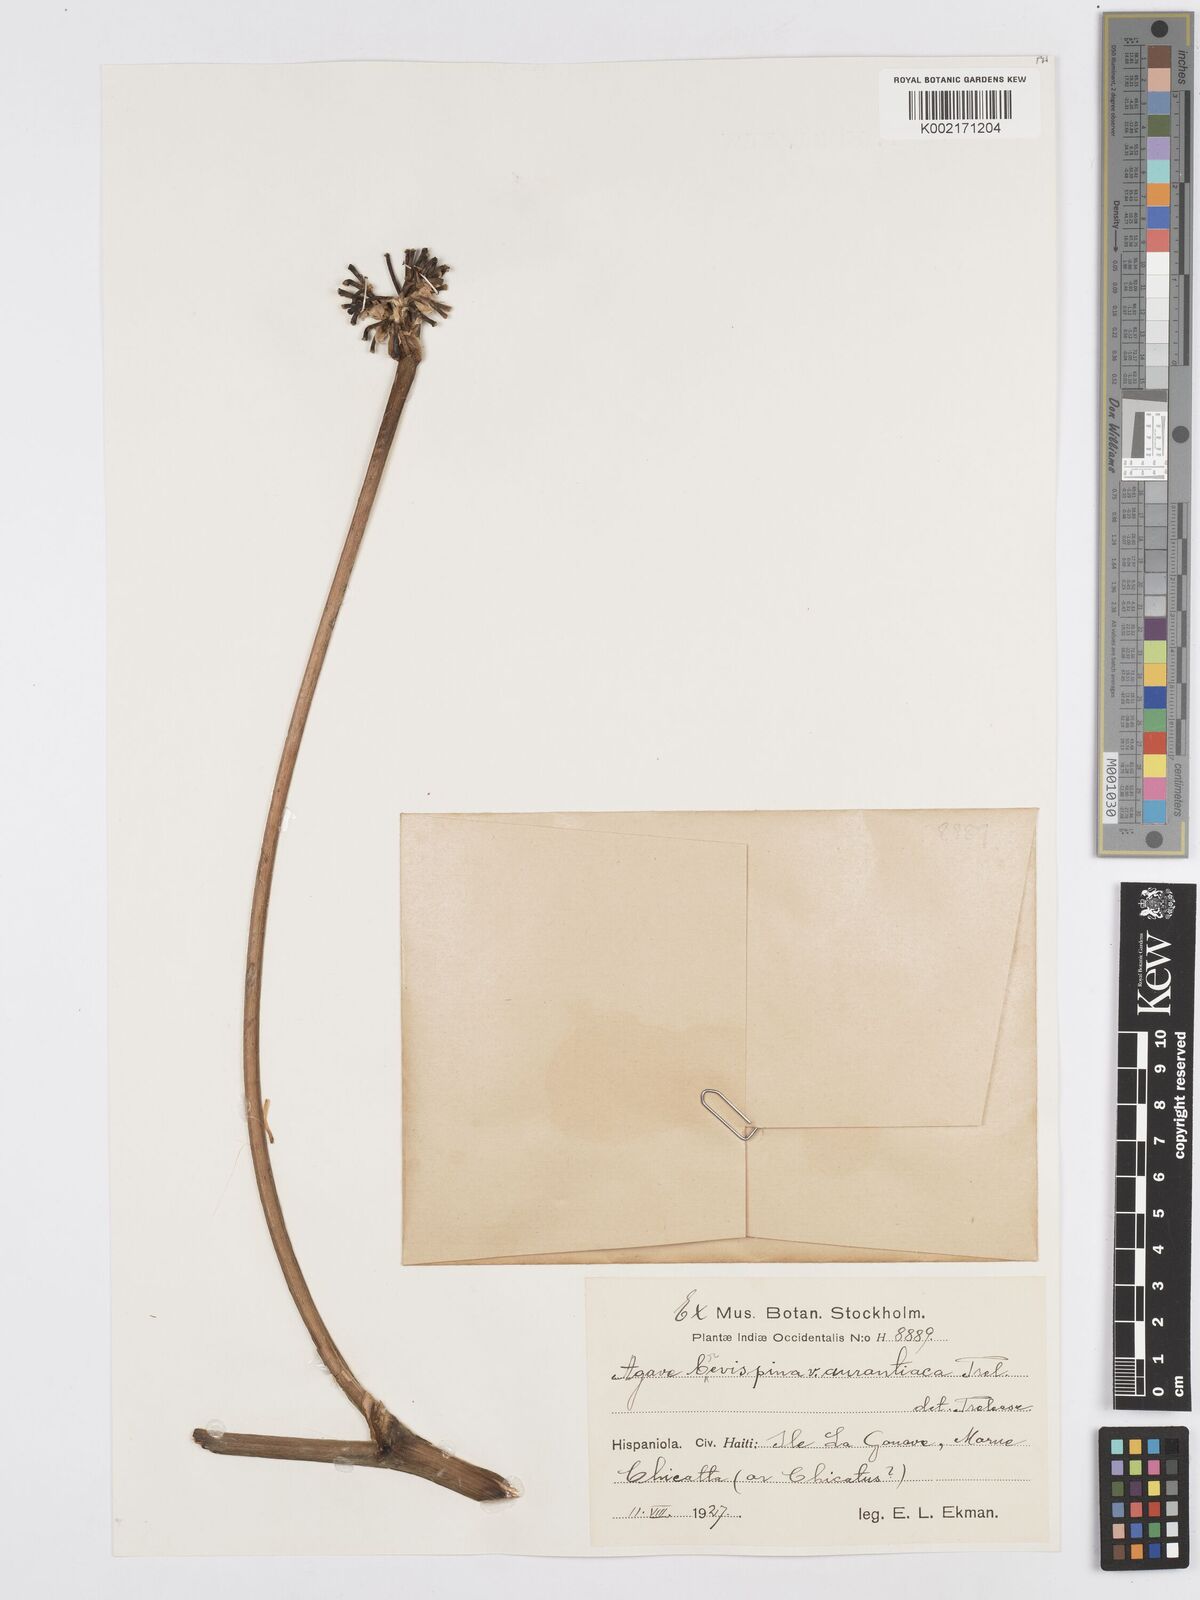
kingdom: Plantae
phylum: Tracheophyta
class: Liliopsida
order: Asparagales
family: Asparagaceae
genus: Agave
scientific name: Agave brevispina
